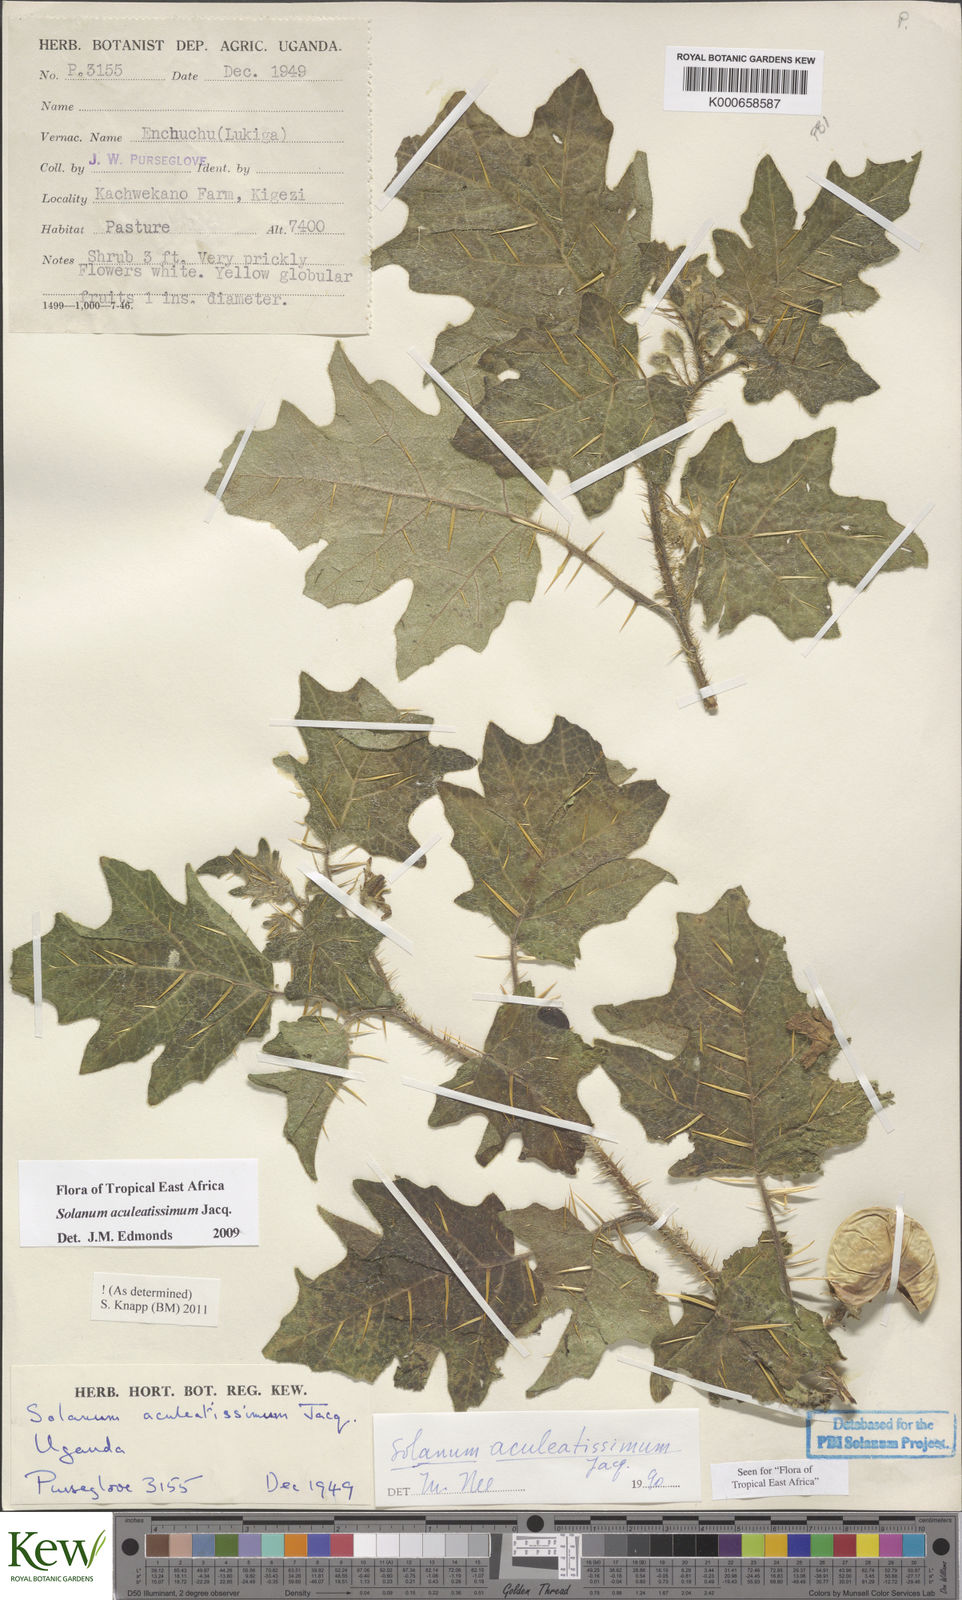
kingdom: Plantae
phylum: Tracheophyta
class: Magnoliopsida
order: Solanales
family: Solanaceae
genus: Solanum
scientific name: Solanum aculeatissimum
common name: Dutch eggplant
